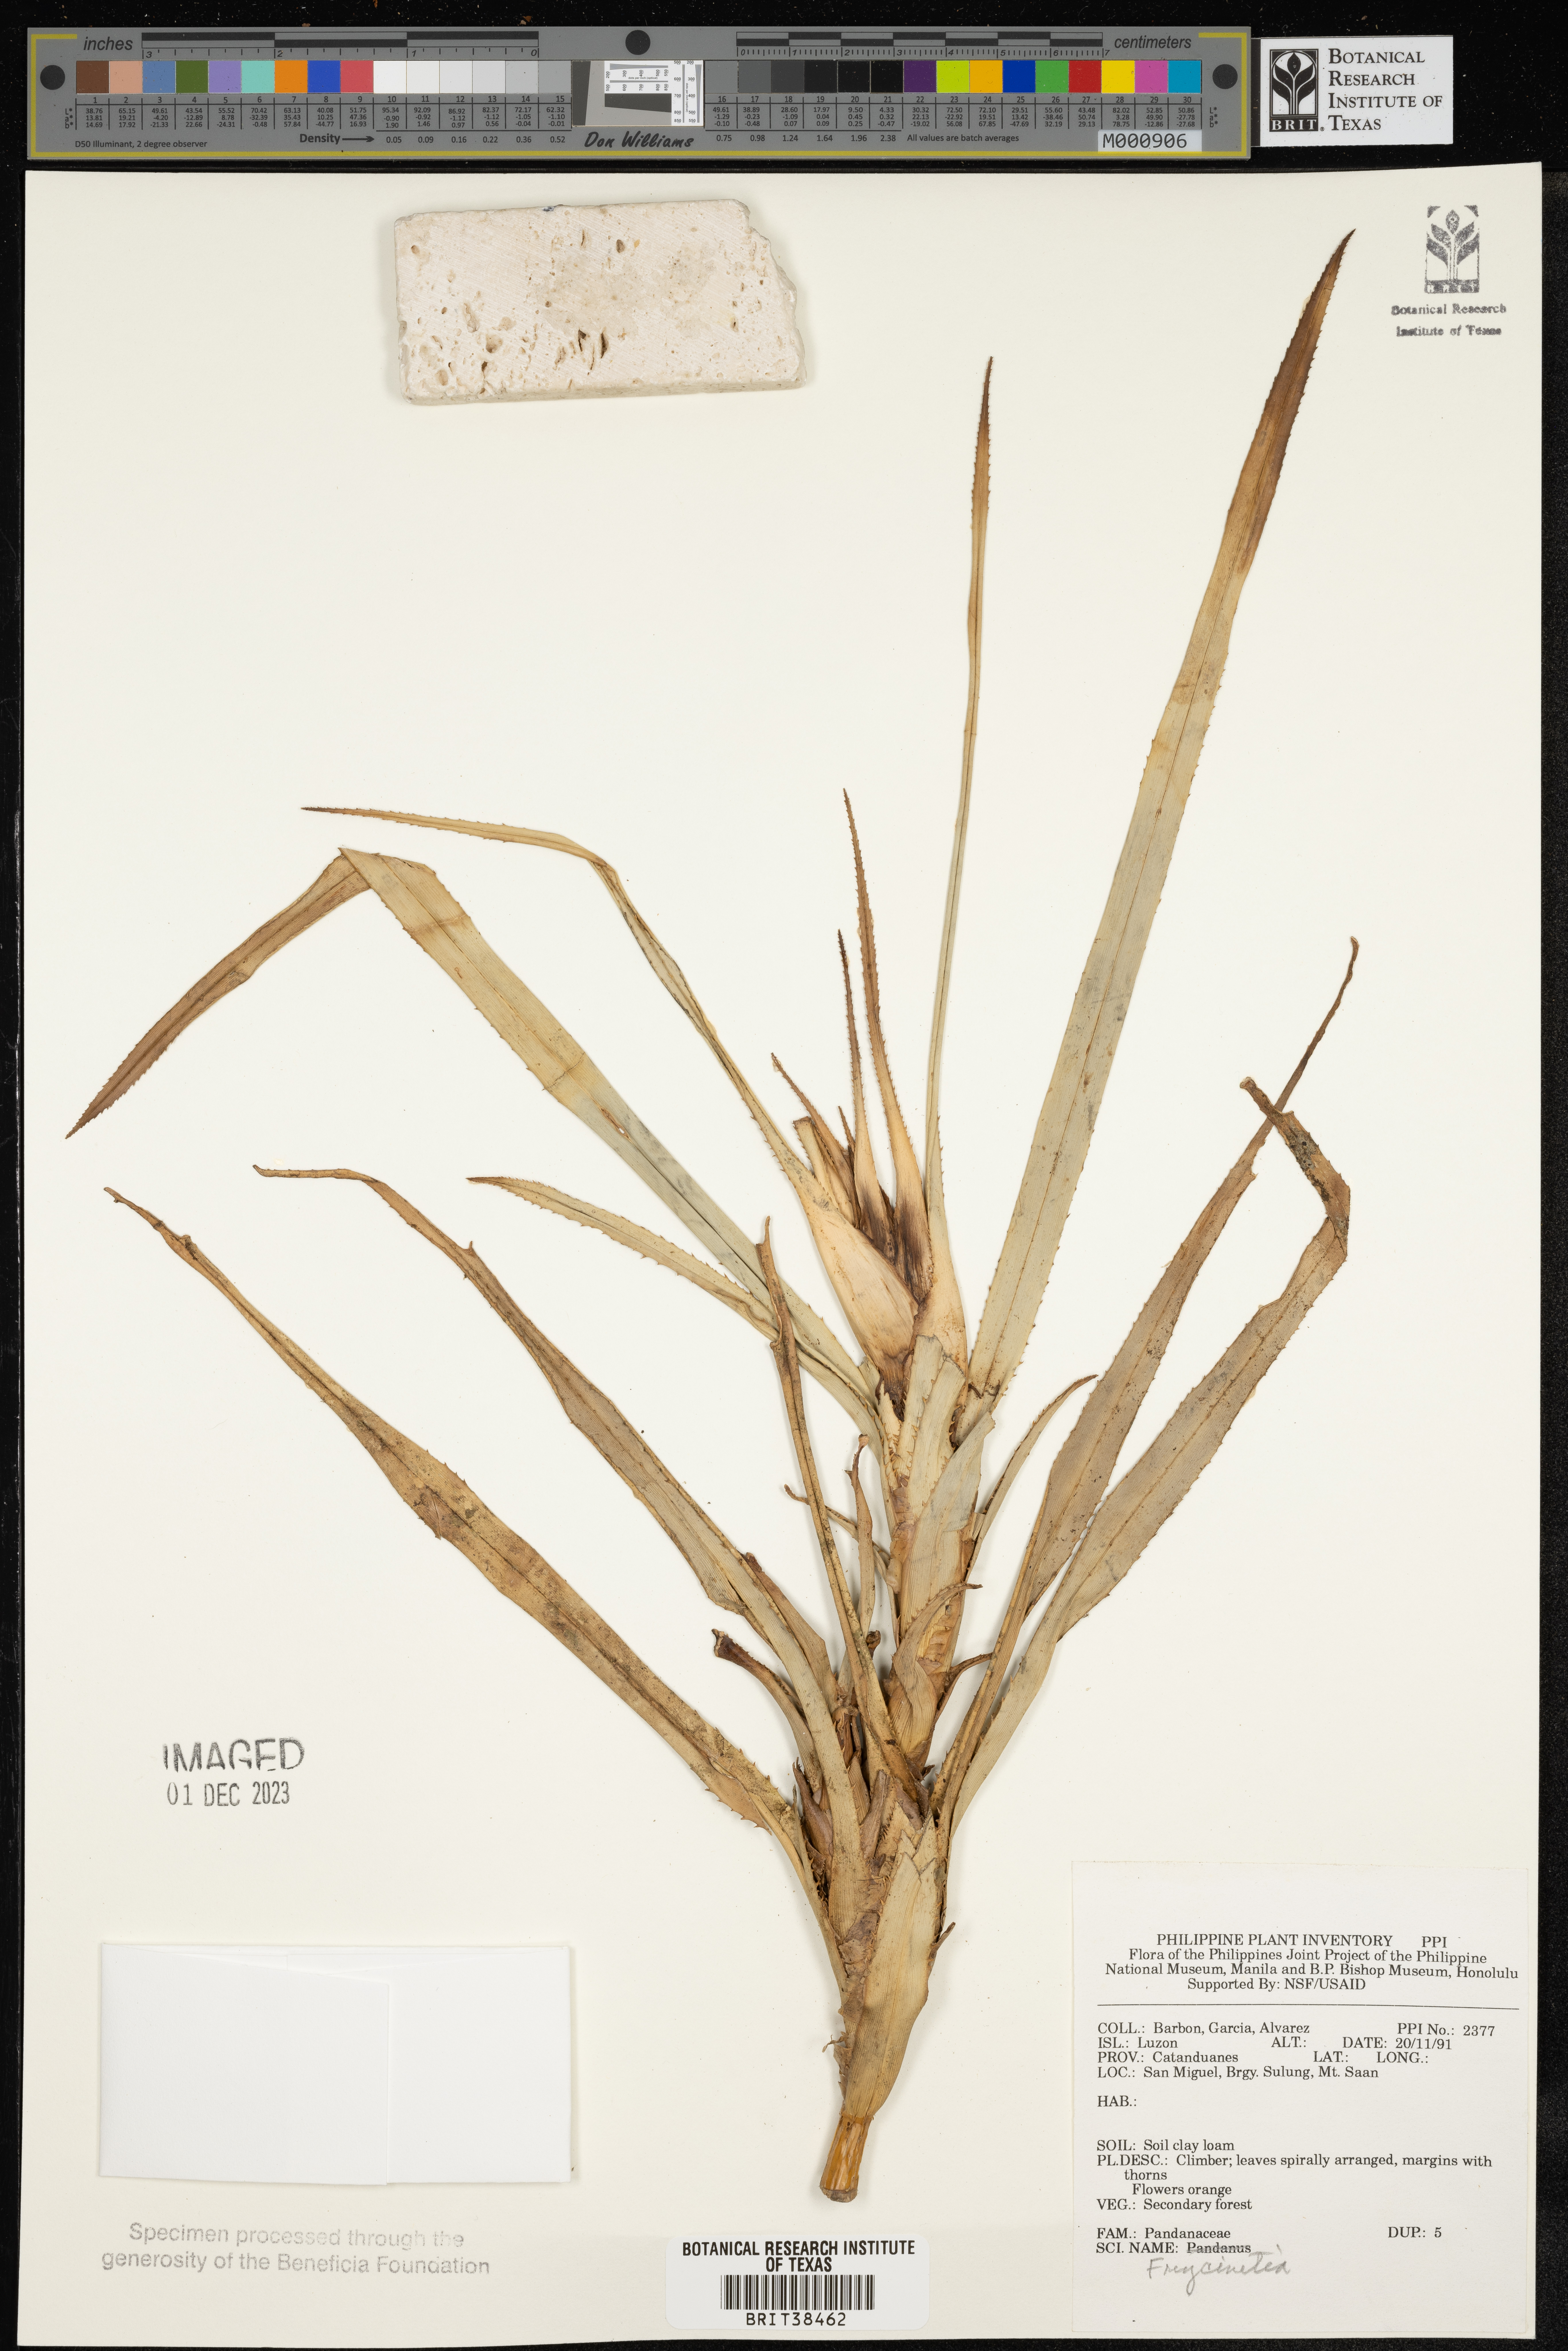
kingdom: Plantae
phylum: Tracheophyta
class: Liliopsida
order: Pandanales
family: Pandanaceae
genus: Freycinetia
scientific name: Freycinetia
